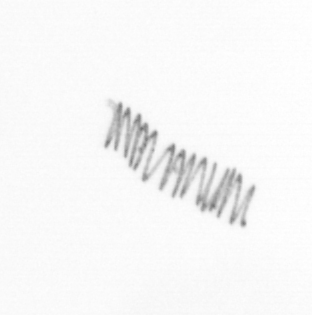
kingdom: Chromista
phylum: Ochrophyta
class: Bacillariophyceae
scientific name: Bacillariophyceae
